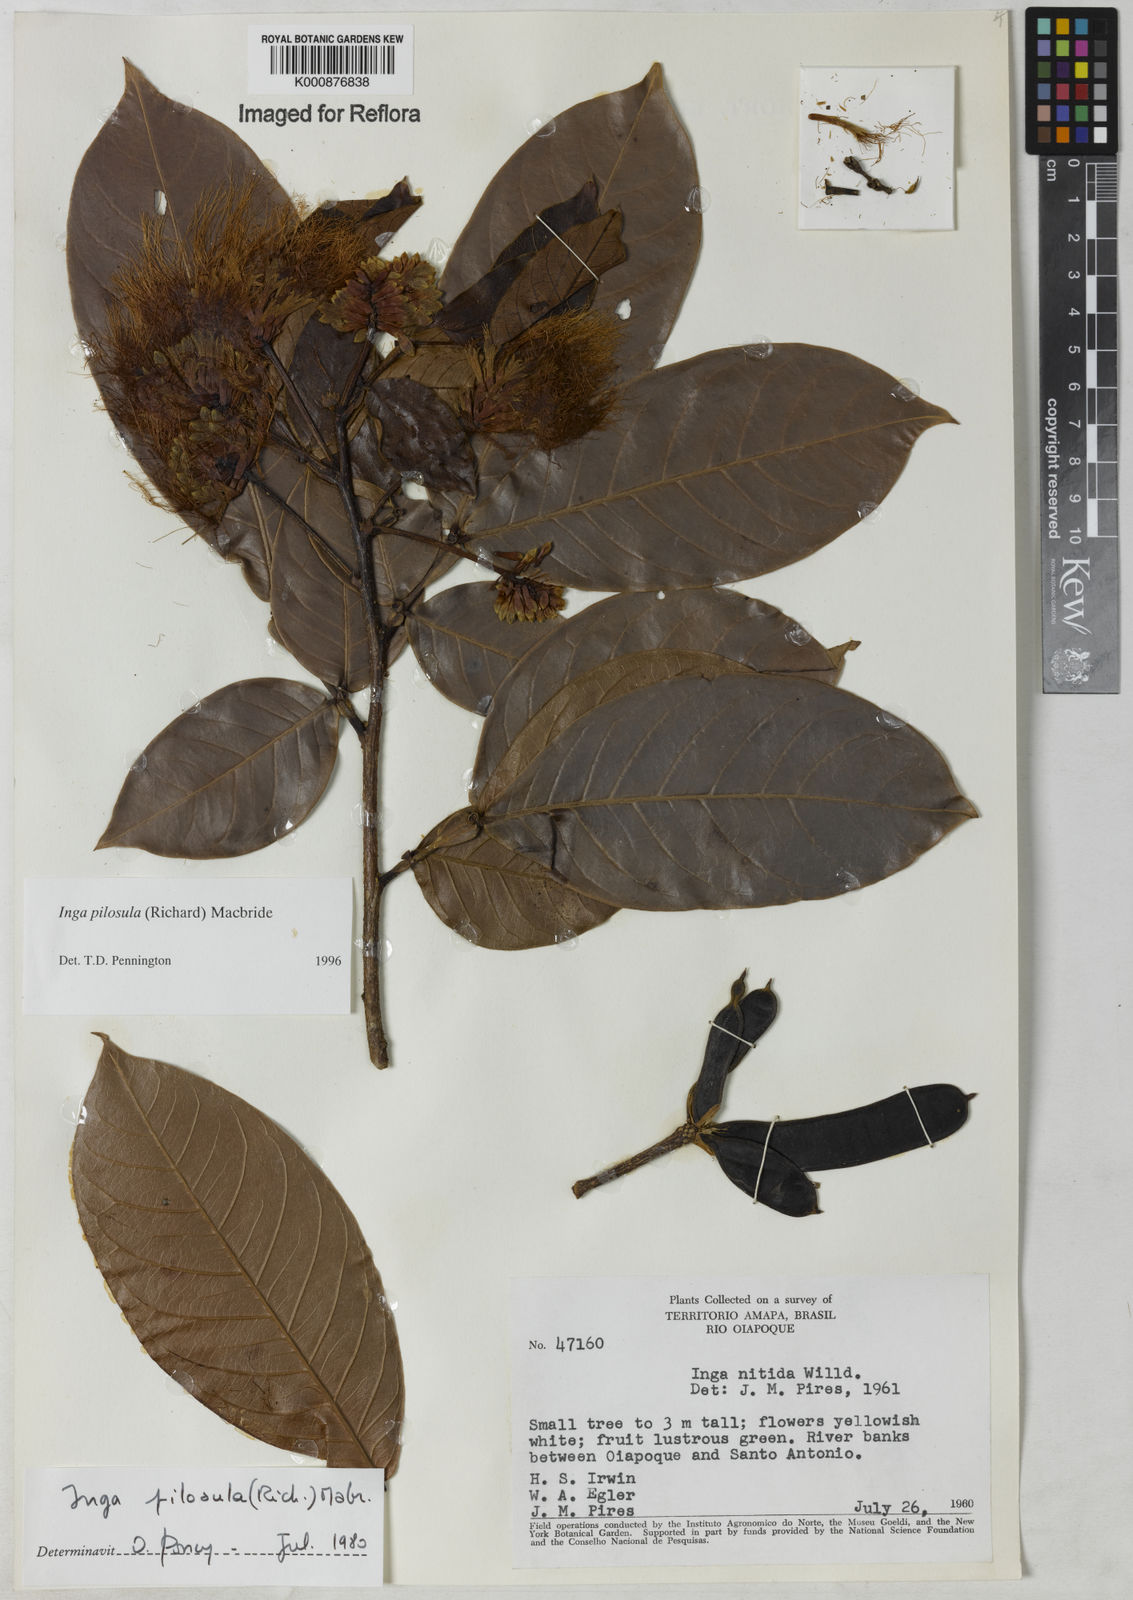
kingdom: Plantae
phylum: Tracheophyta
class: Magnoliopsida
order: Fabales
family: Fabaceae
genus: Inga
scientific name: Inga pilosula
